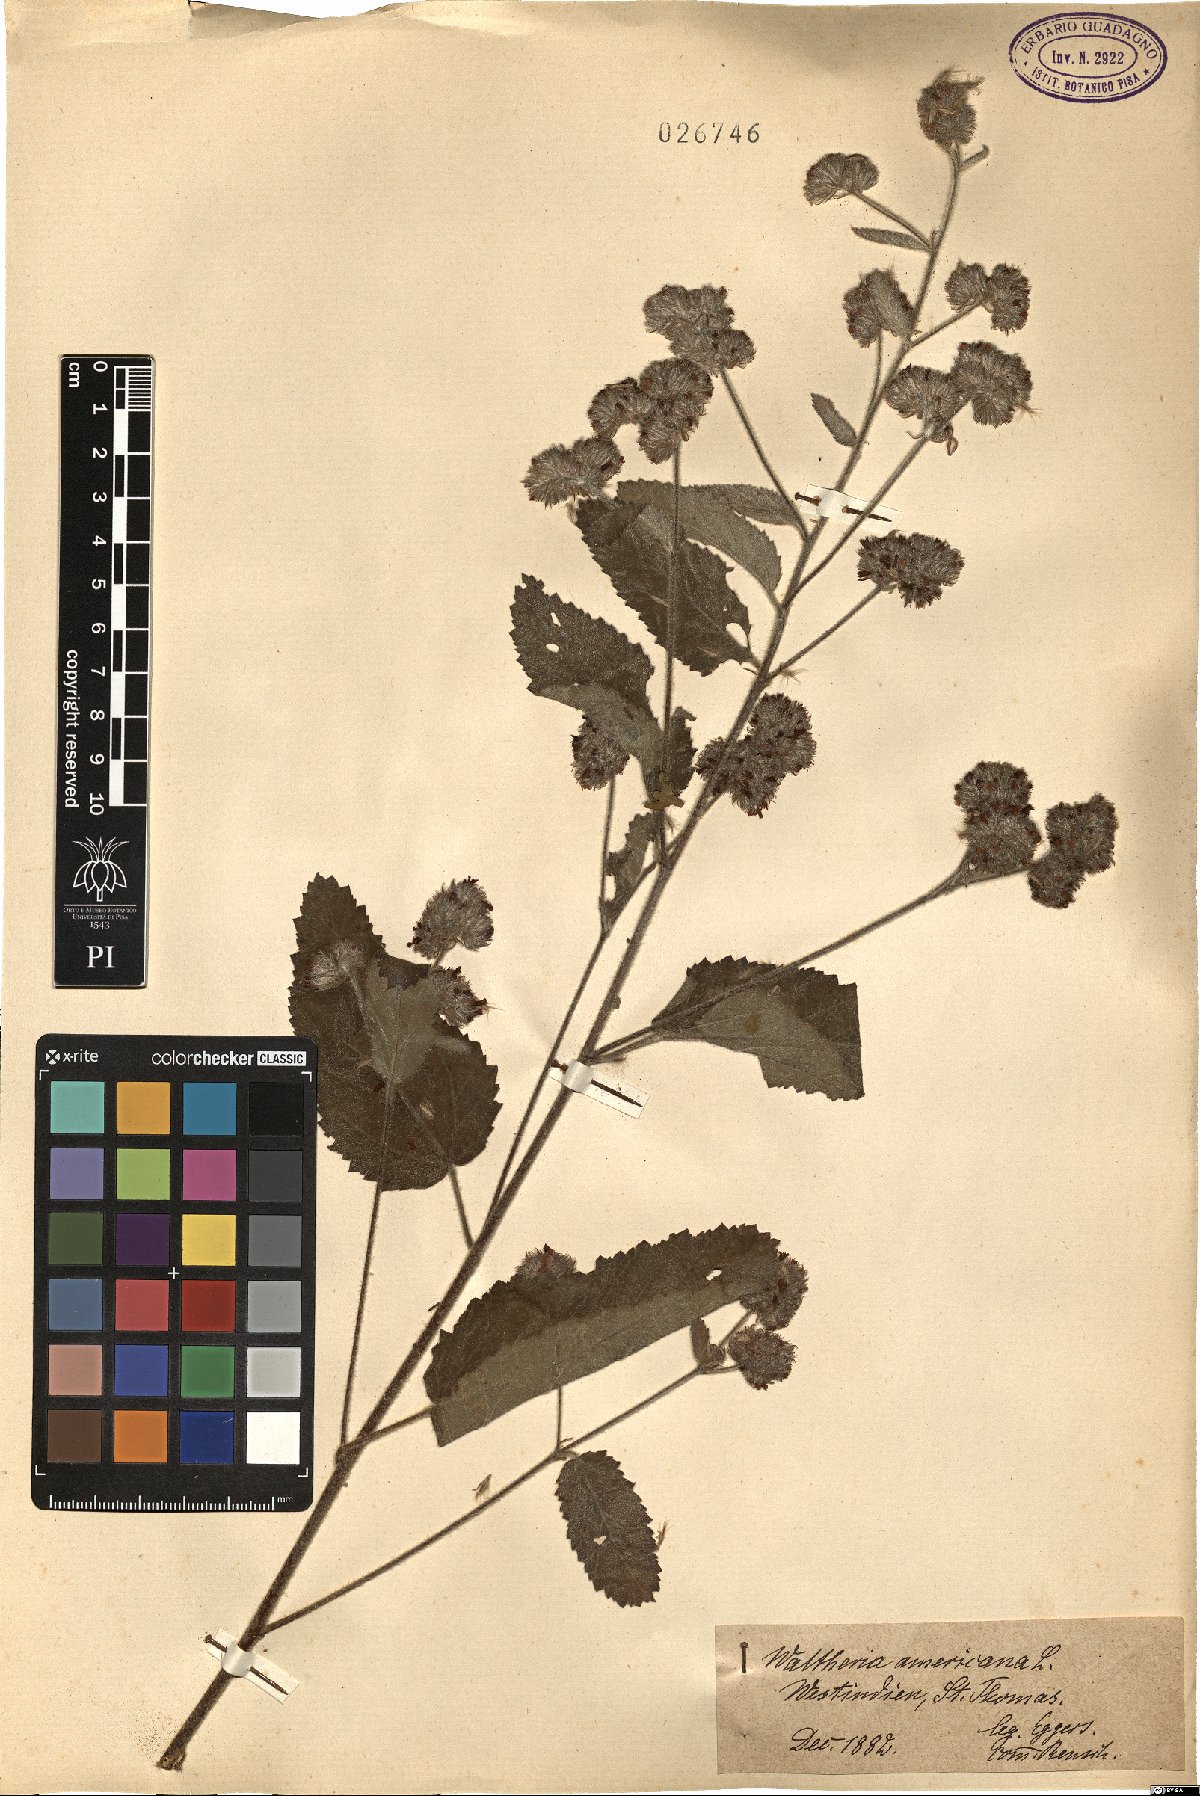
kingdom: Plantae
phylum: Tracheophyta
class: Magnoliopsida
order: Malvales
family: Malvaceae
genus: Waltheria
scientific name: Waltheria indica
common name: Leather-coat
